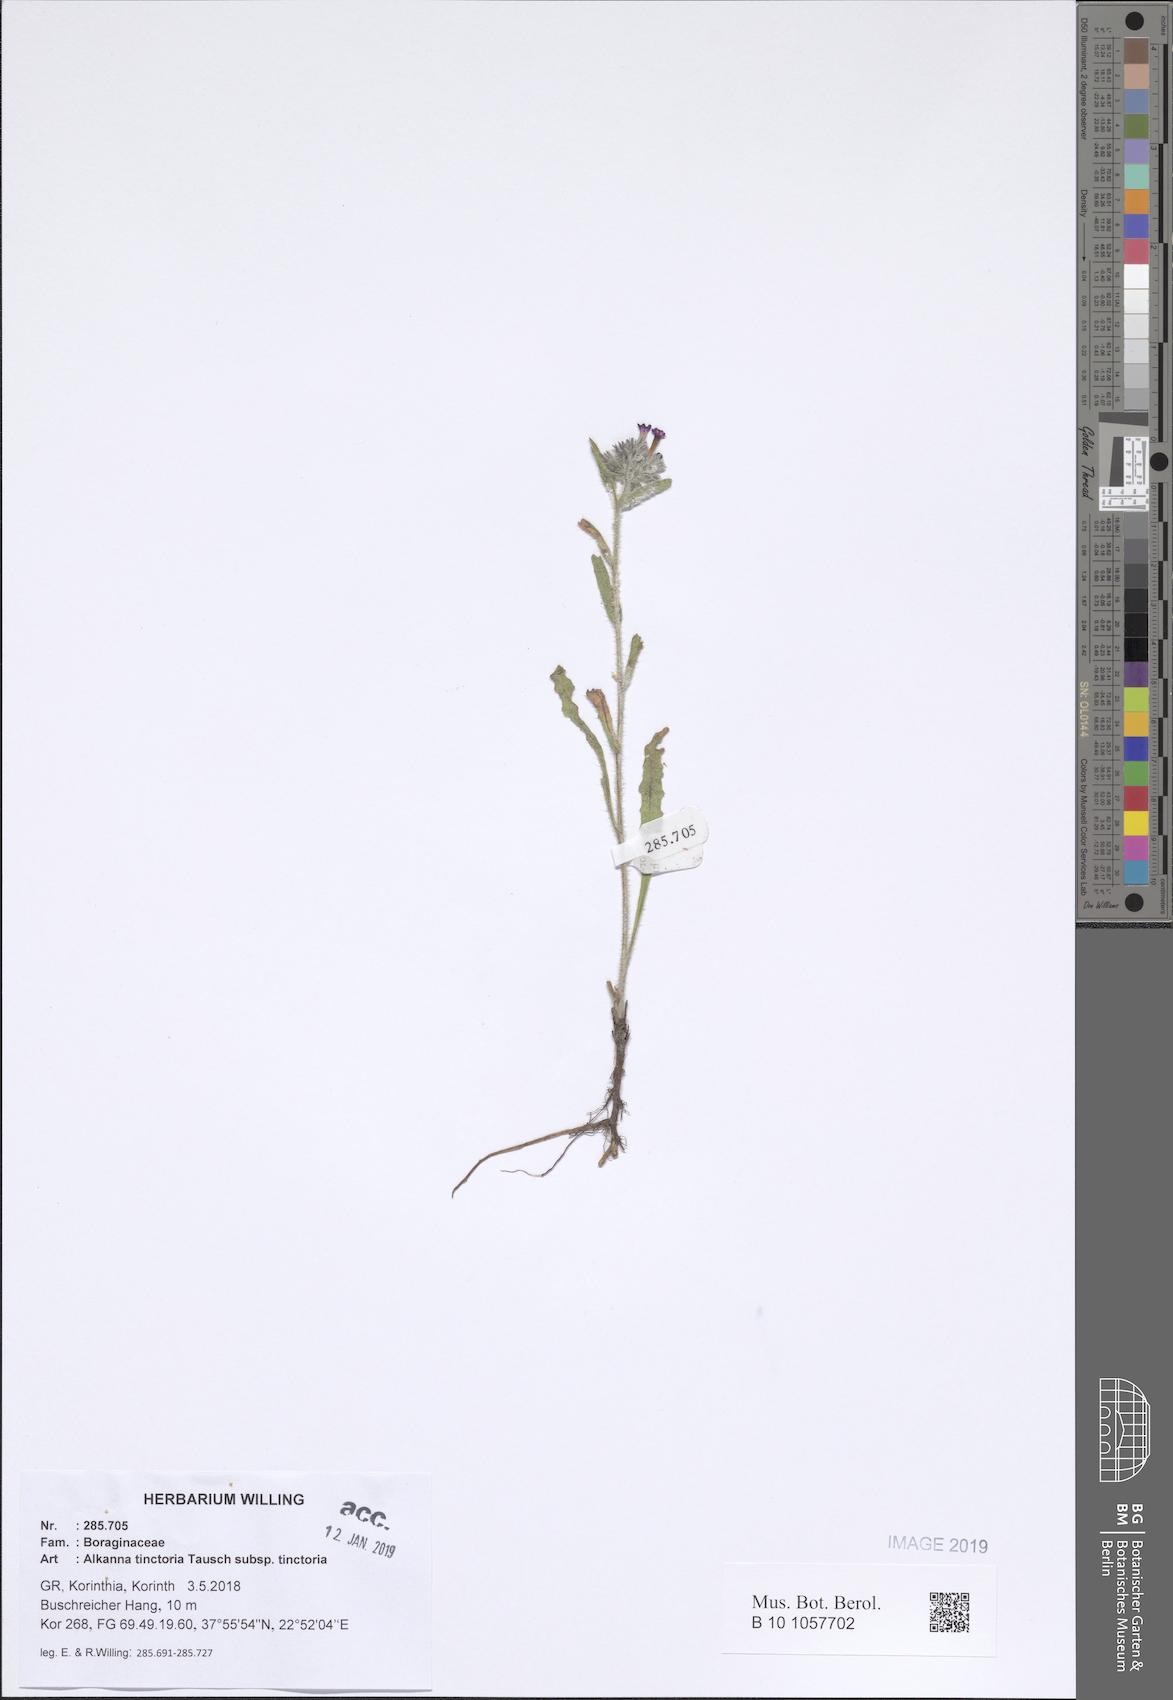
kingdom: Plantae
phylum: Tracheophyta
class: Magnoliopsida
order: Boraginales
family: Boraginaceae
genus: Alkanna
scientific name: Alkanna tinctoria
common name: Dyer's-alkanet
